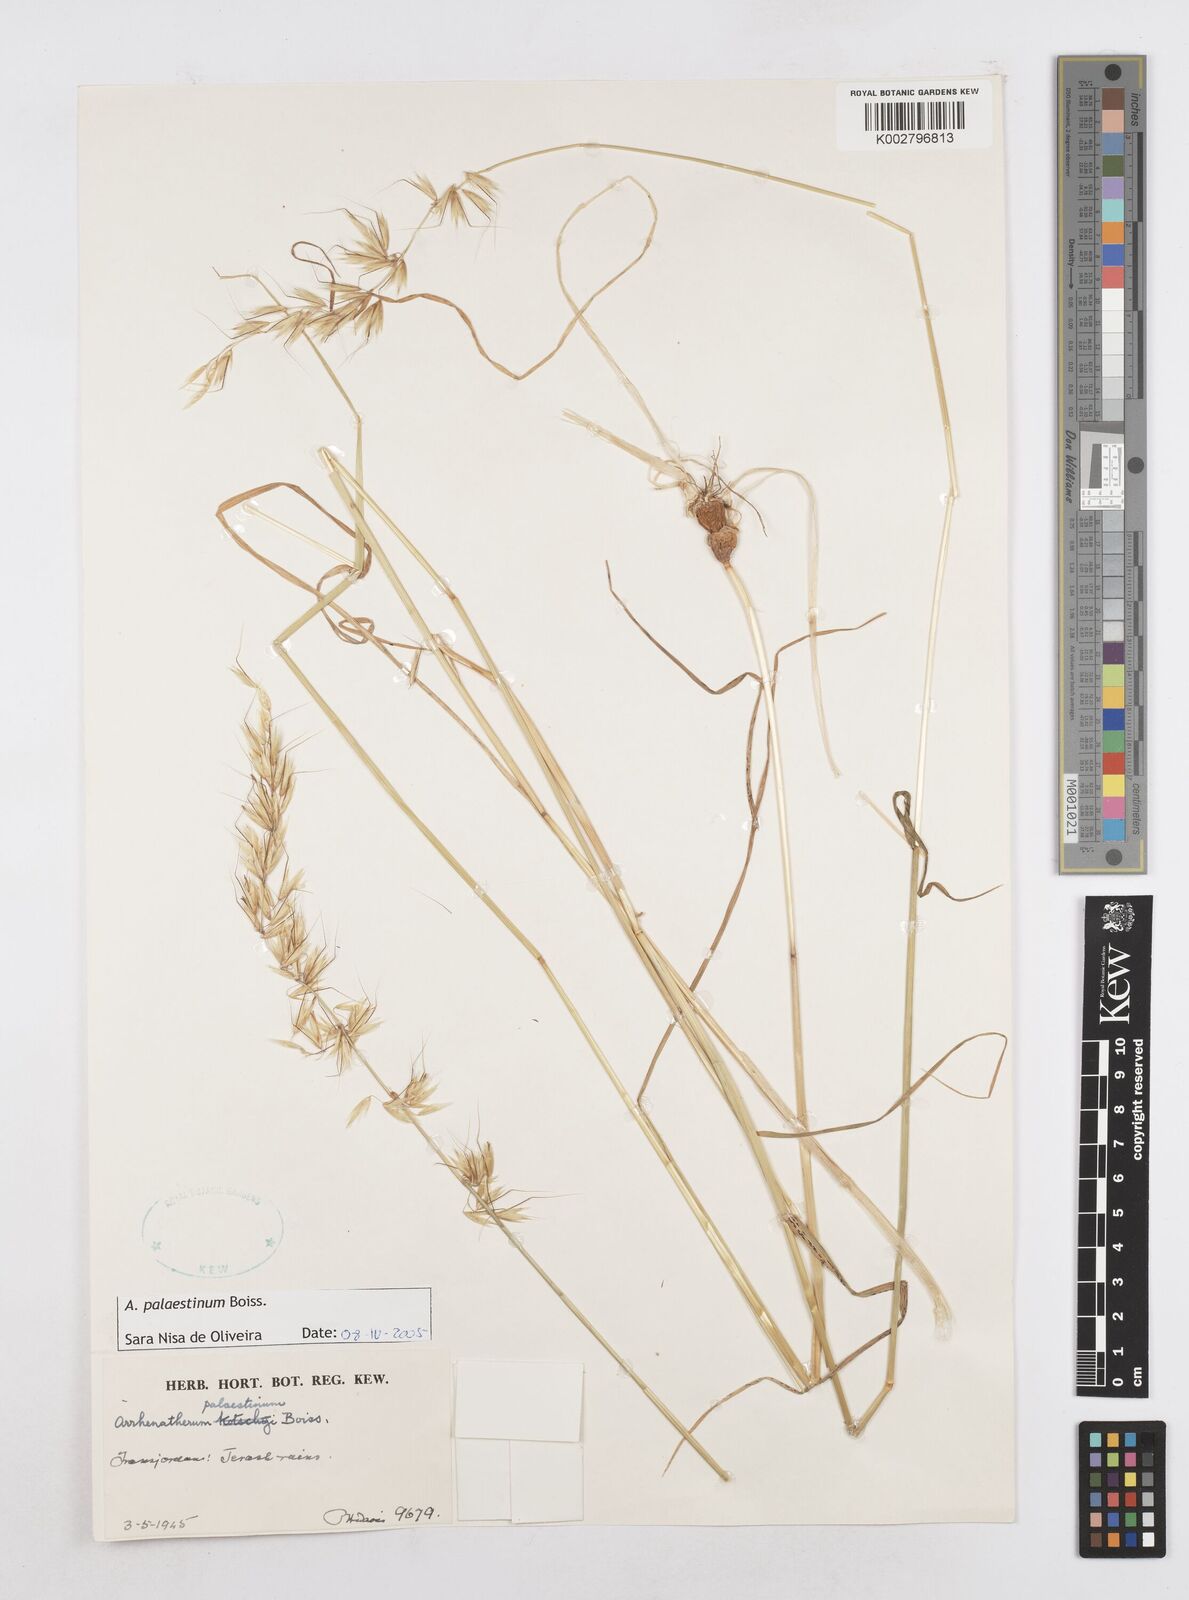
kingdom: Plantae
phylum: Tracheophyta
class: Liliopsida
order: Poales
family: Poaceae
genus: Arrhenatherum
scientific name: Arrhenatherum palaestinum
